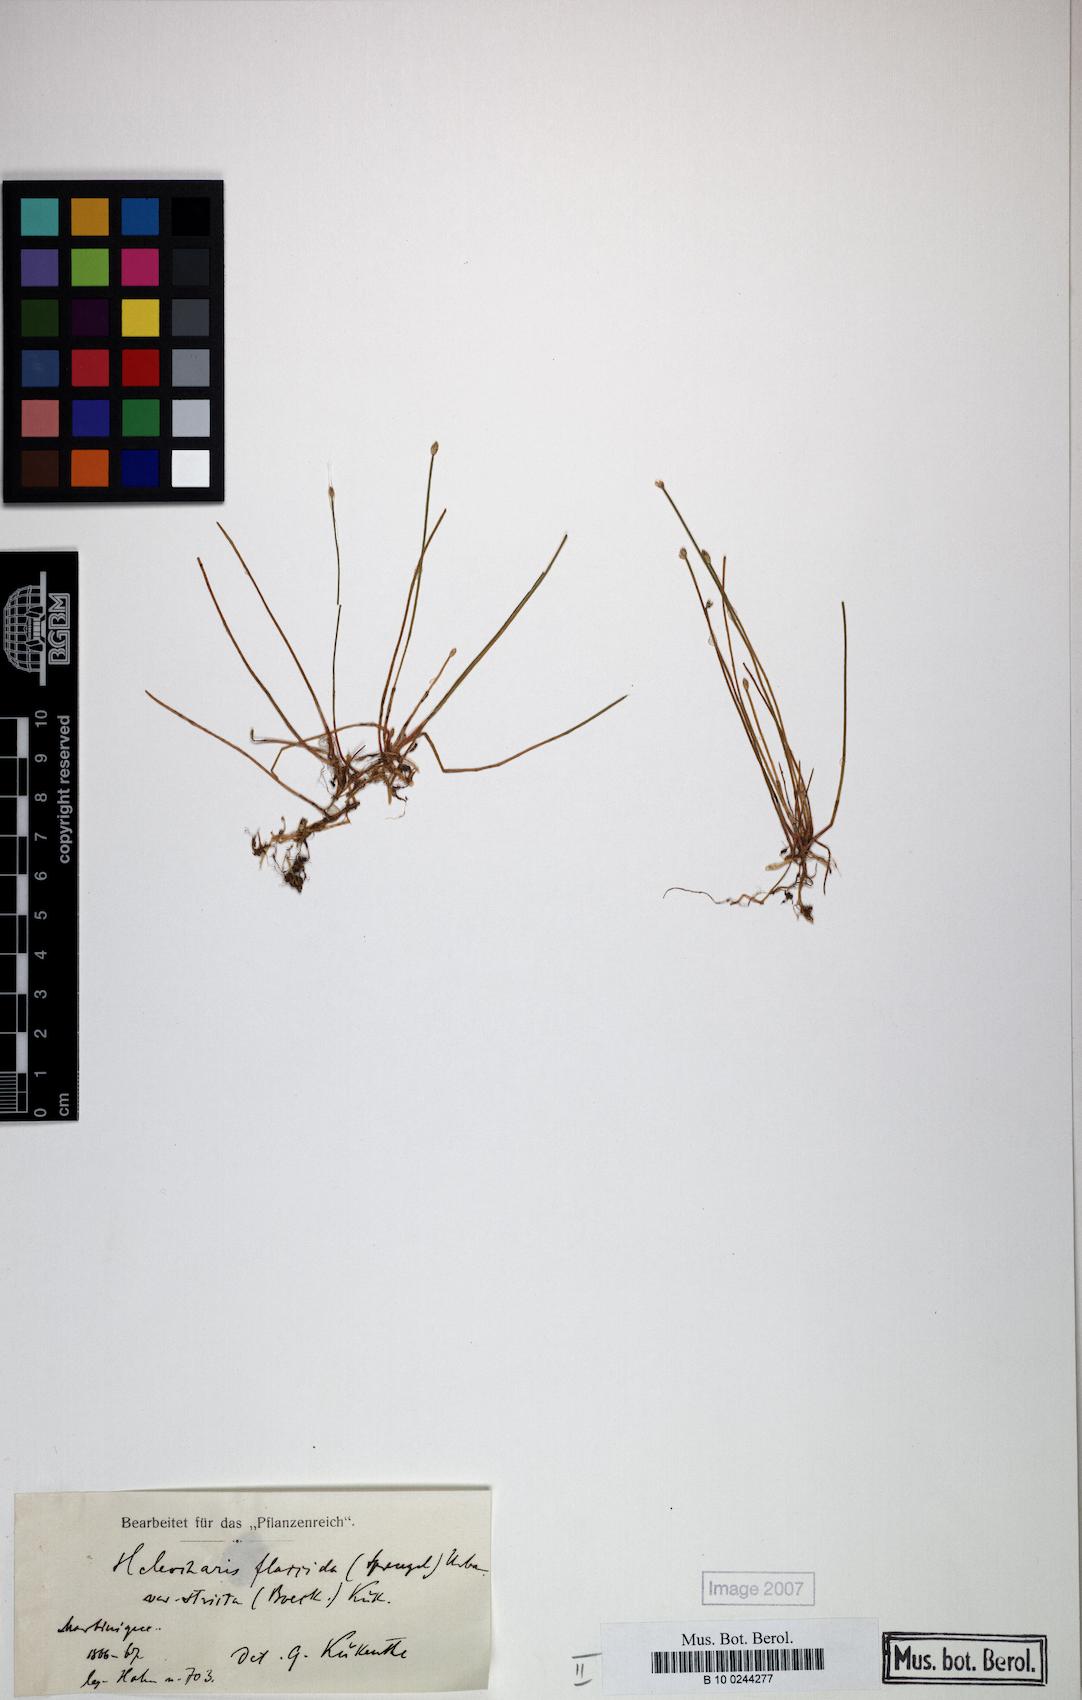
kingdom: Plantae
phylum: Tracheophyta
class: Liliopsida
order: Poales
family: Cyperaceae
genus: Eleocharis
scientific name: Eleocharis flavescens
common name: Yellow spikerush
